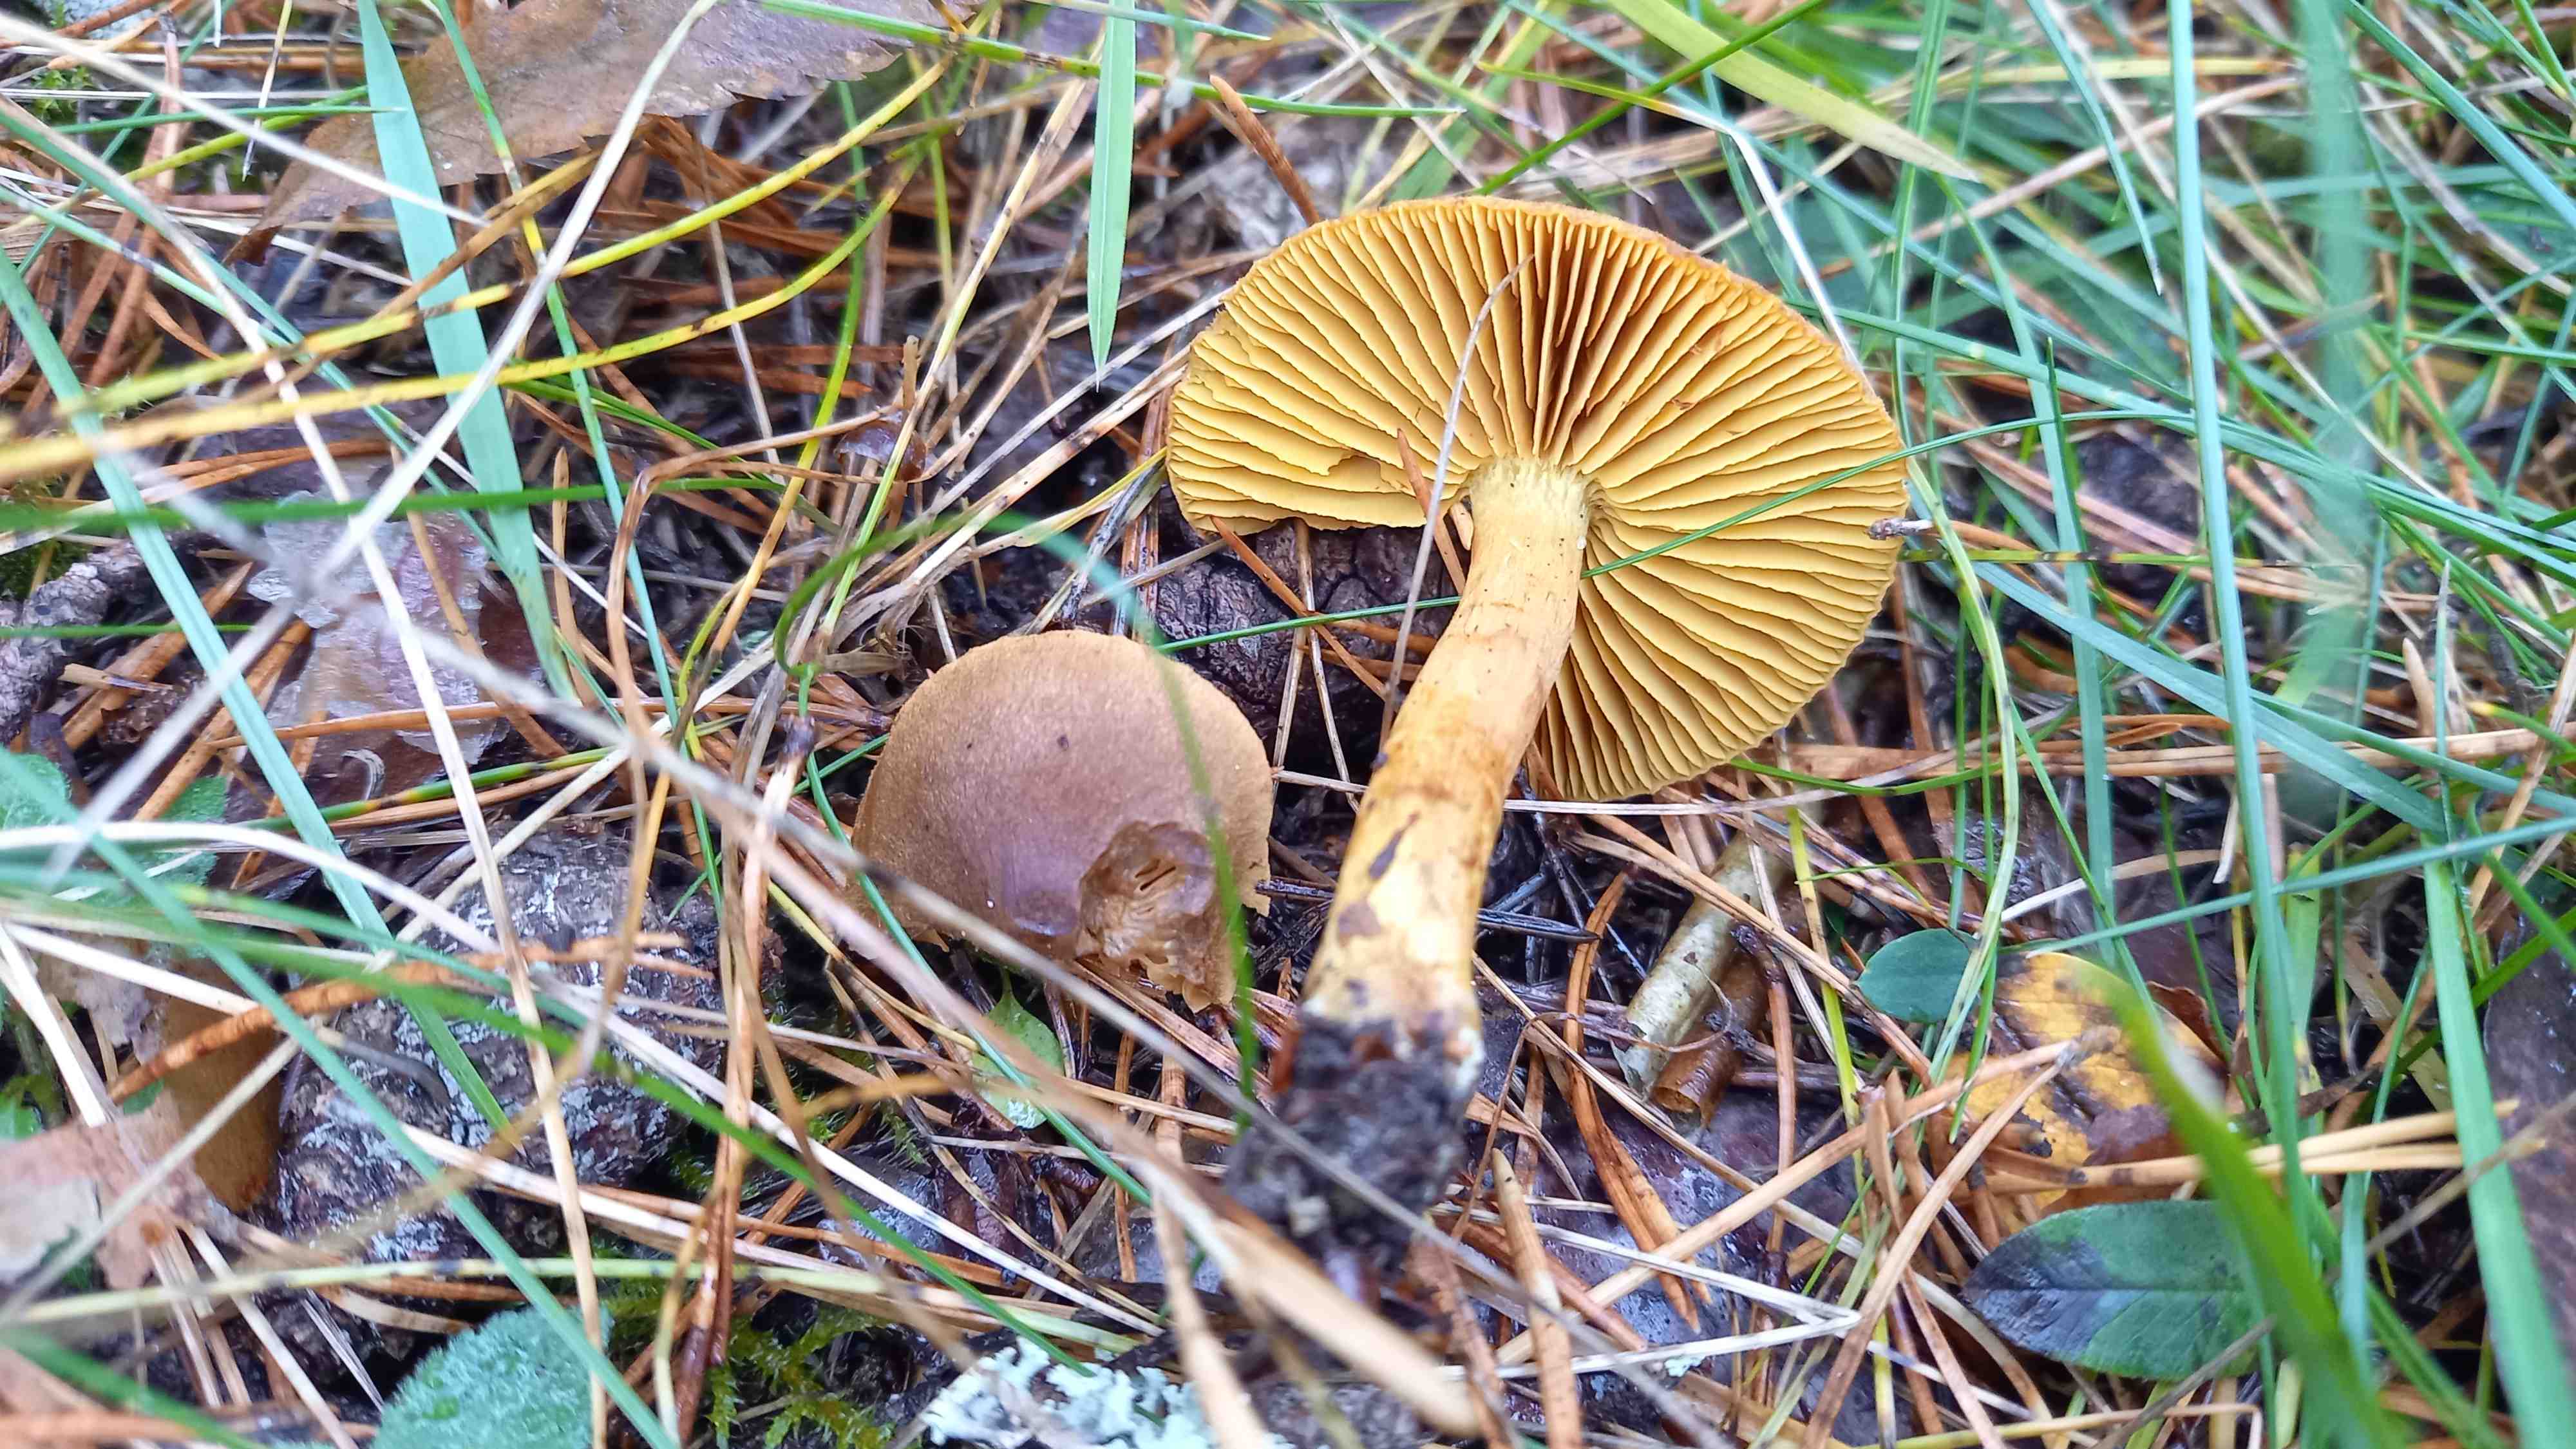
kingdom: Fungi
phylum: Basidiomycota
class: Agaricomycetes
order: Agaricales
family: Cortinariaceae
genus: Cortinarius
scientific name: Cortinarius
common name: gulbladet slørhat
